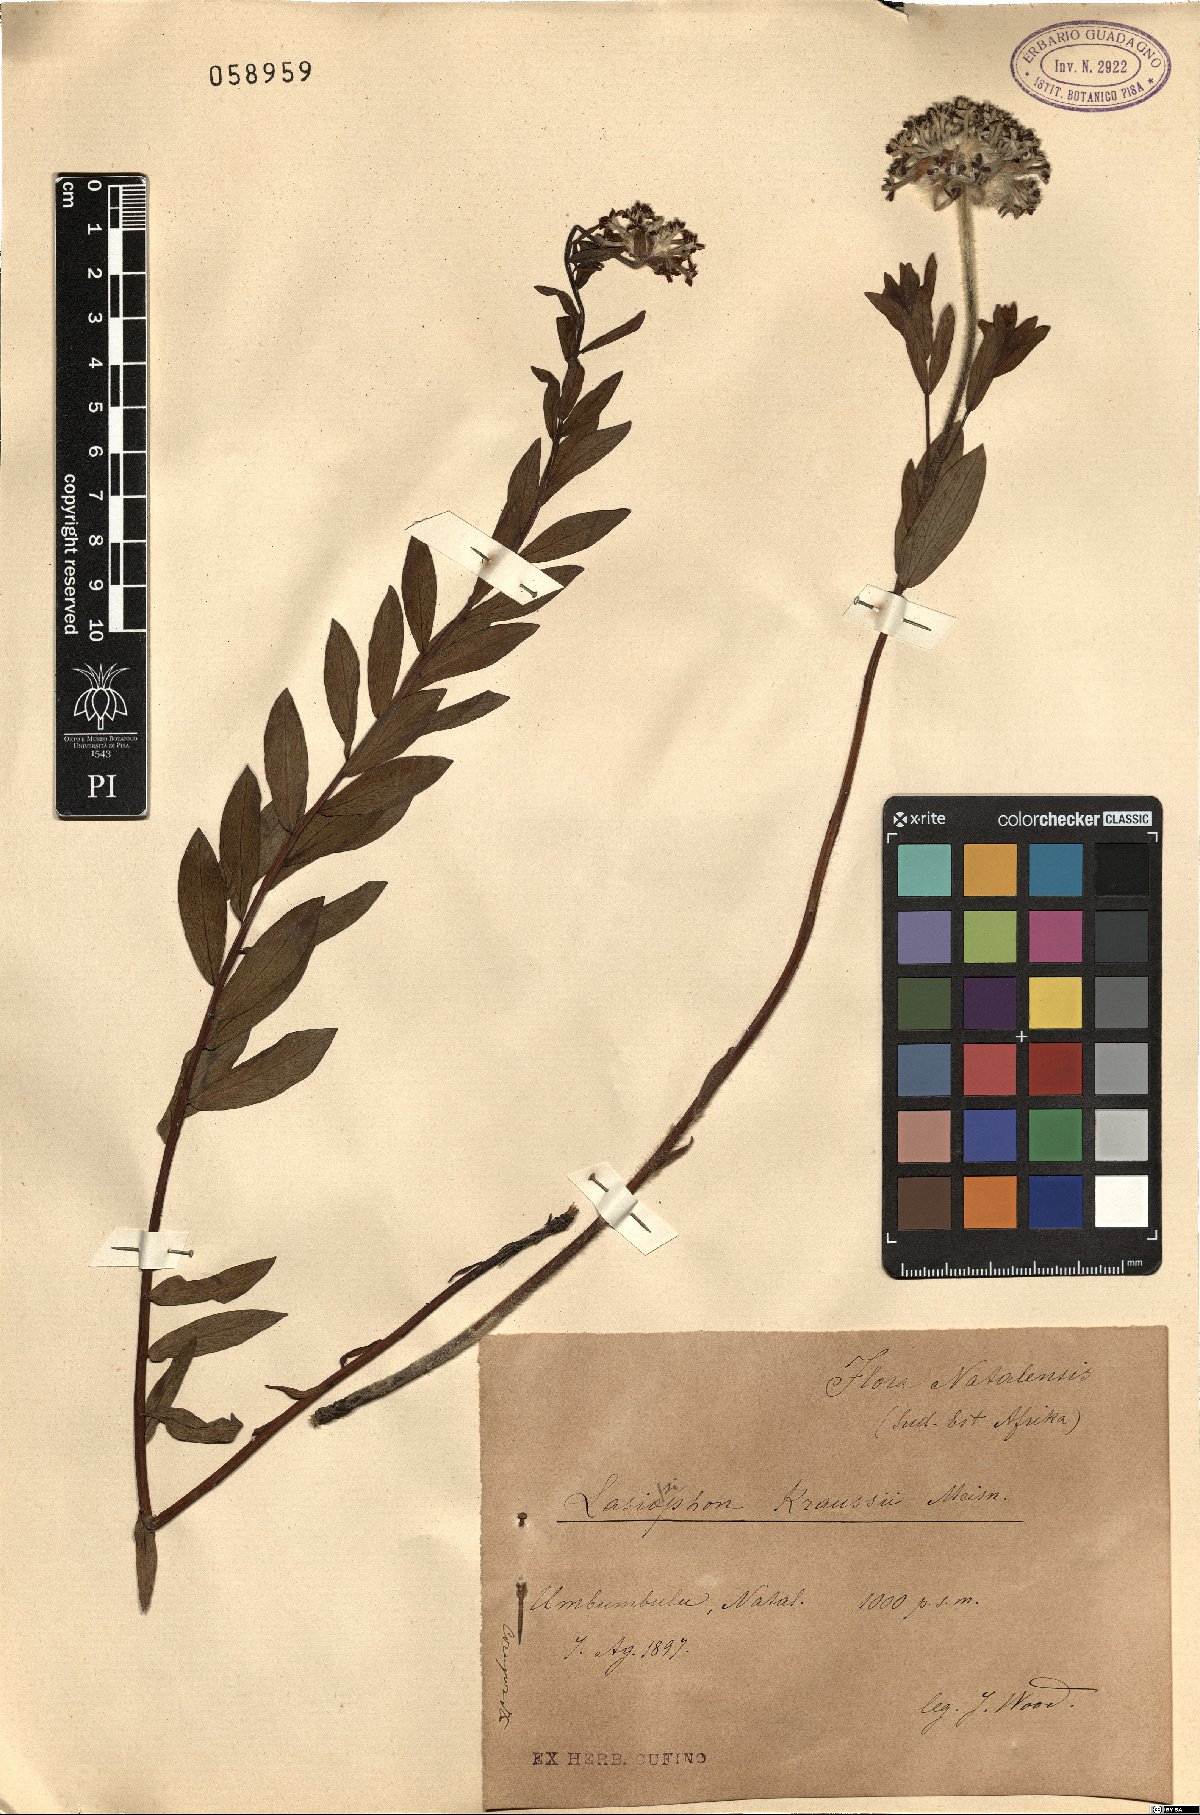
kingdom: Plantae
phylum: Tracheophyta
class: Magnoliopsida
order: Malvales
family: Thymelaeaceae
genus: Gnidia
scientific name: Gnidia kraussiana
